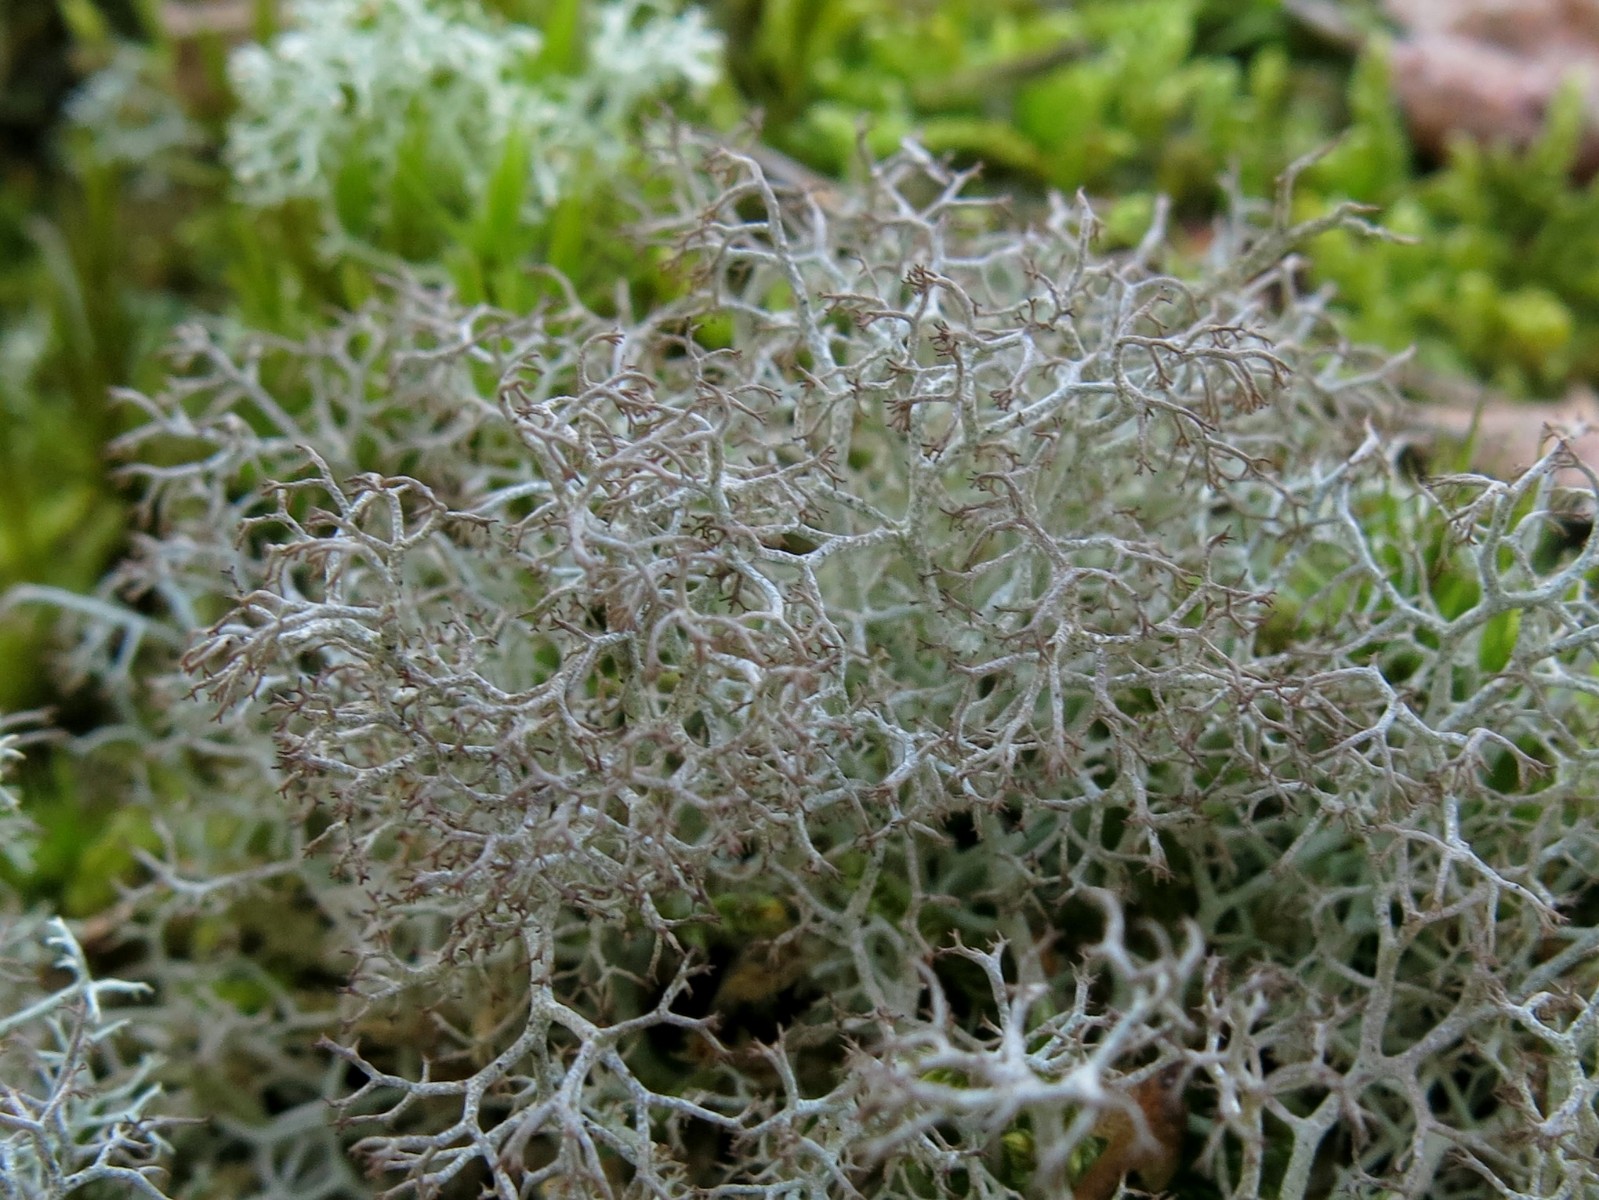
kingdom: Fungi
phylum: Ascomycota
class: Lecanoromycetes
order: Lecanorales
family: Cladoniaceae
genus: Cladonia
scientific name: Cladonia ciliata
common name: spinkel rensdyrlav
